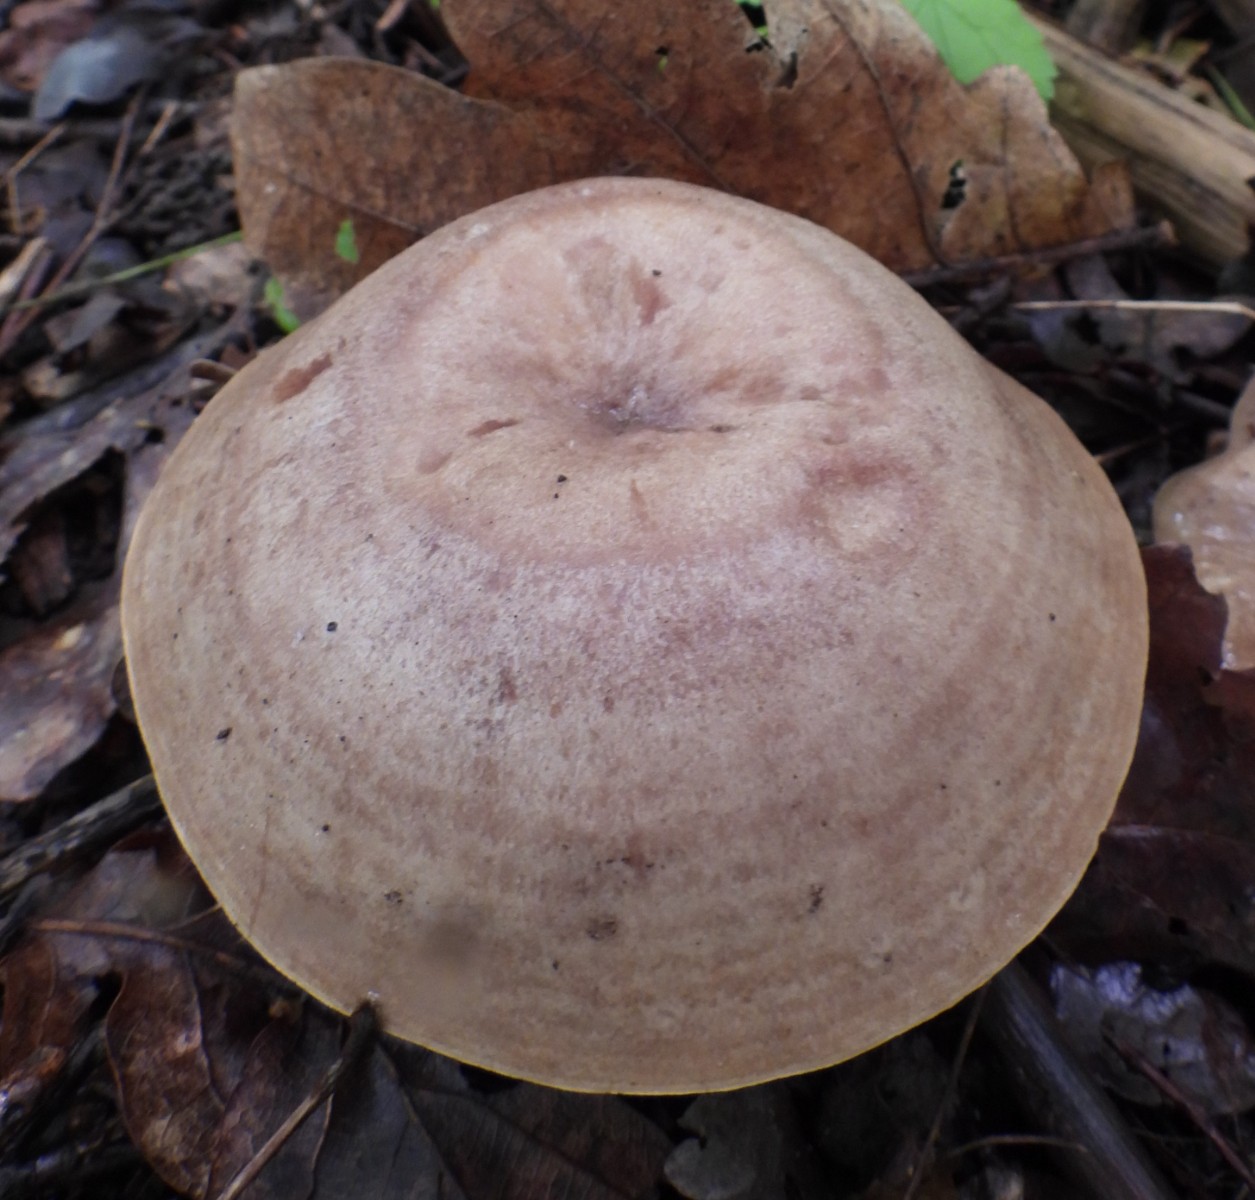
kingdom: Fungi
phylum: Basidiomycota
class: Agaricomycetes
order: Russulales
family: Russulaceae
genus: Lactarius
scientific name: Lactarius quietus
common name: ege-mælkehat
